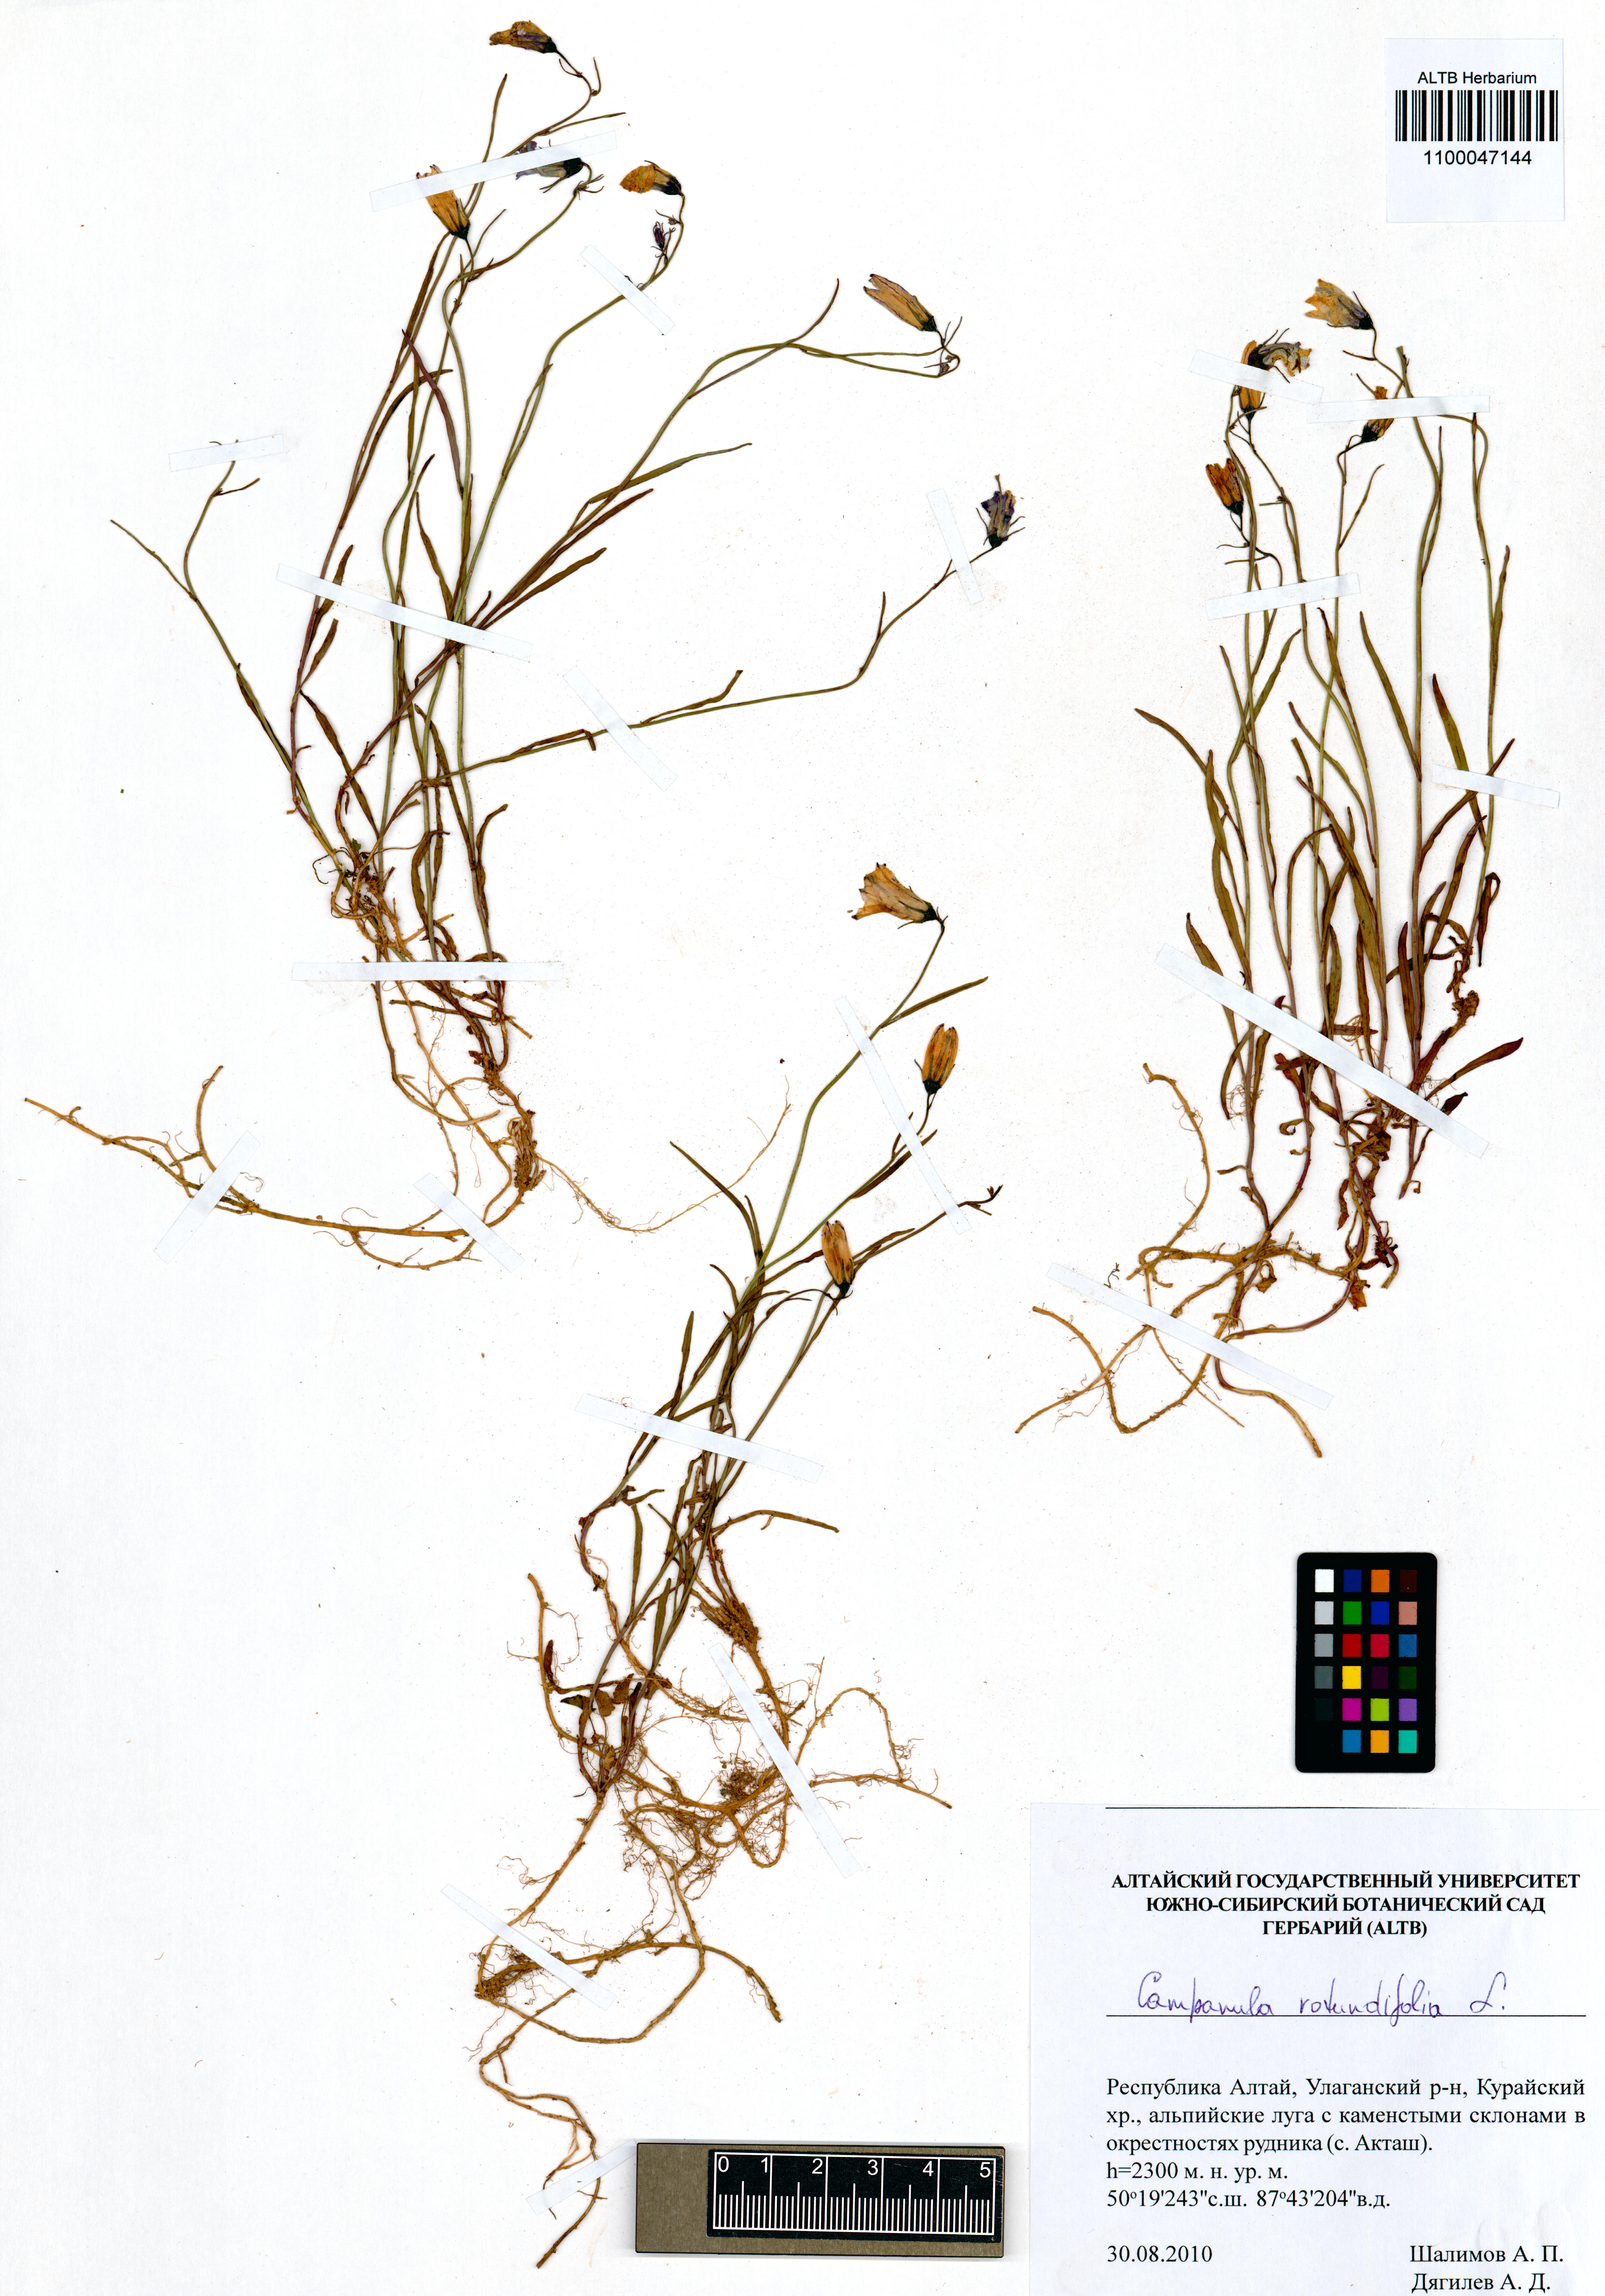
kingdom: Plantae
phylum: Tracheophyta
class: Magnoliopsida
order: Asterales
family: Campanulaceae
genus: Campanula
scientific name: Campanula rotundifolia
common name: Harebell
